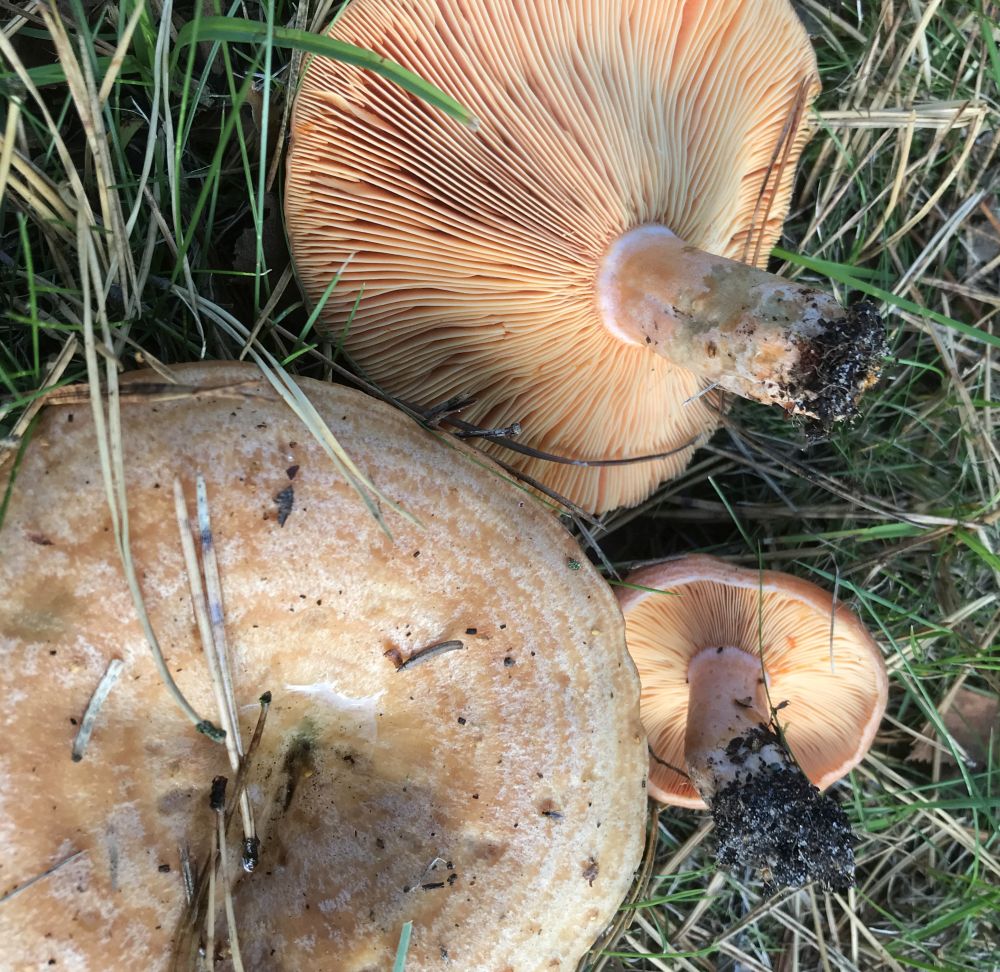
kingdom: Fungi
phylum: Basidiomycota
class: Agaricomycetes
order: Russulales
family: Russulaceae
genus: Lactarius
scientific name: Lactarius deliciosus
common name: velsmagende mælkehat
